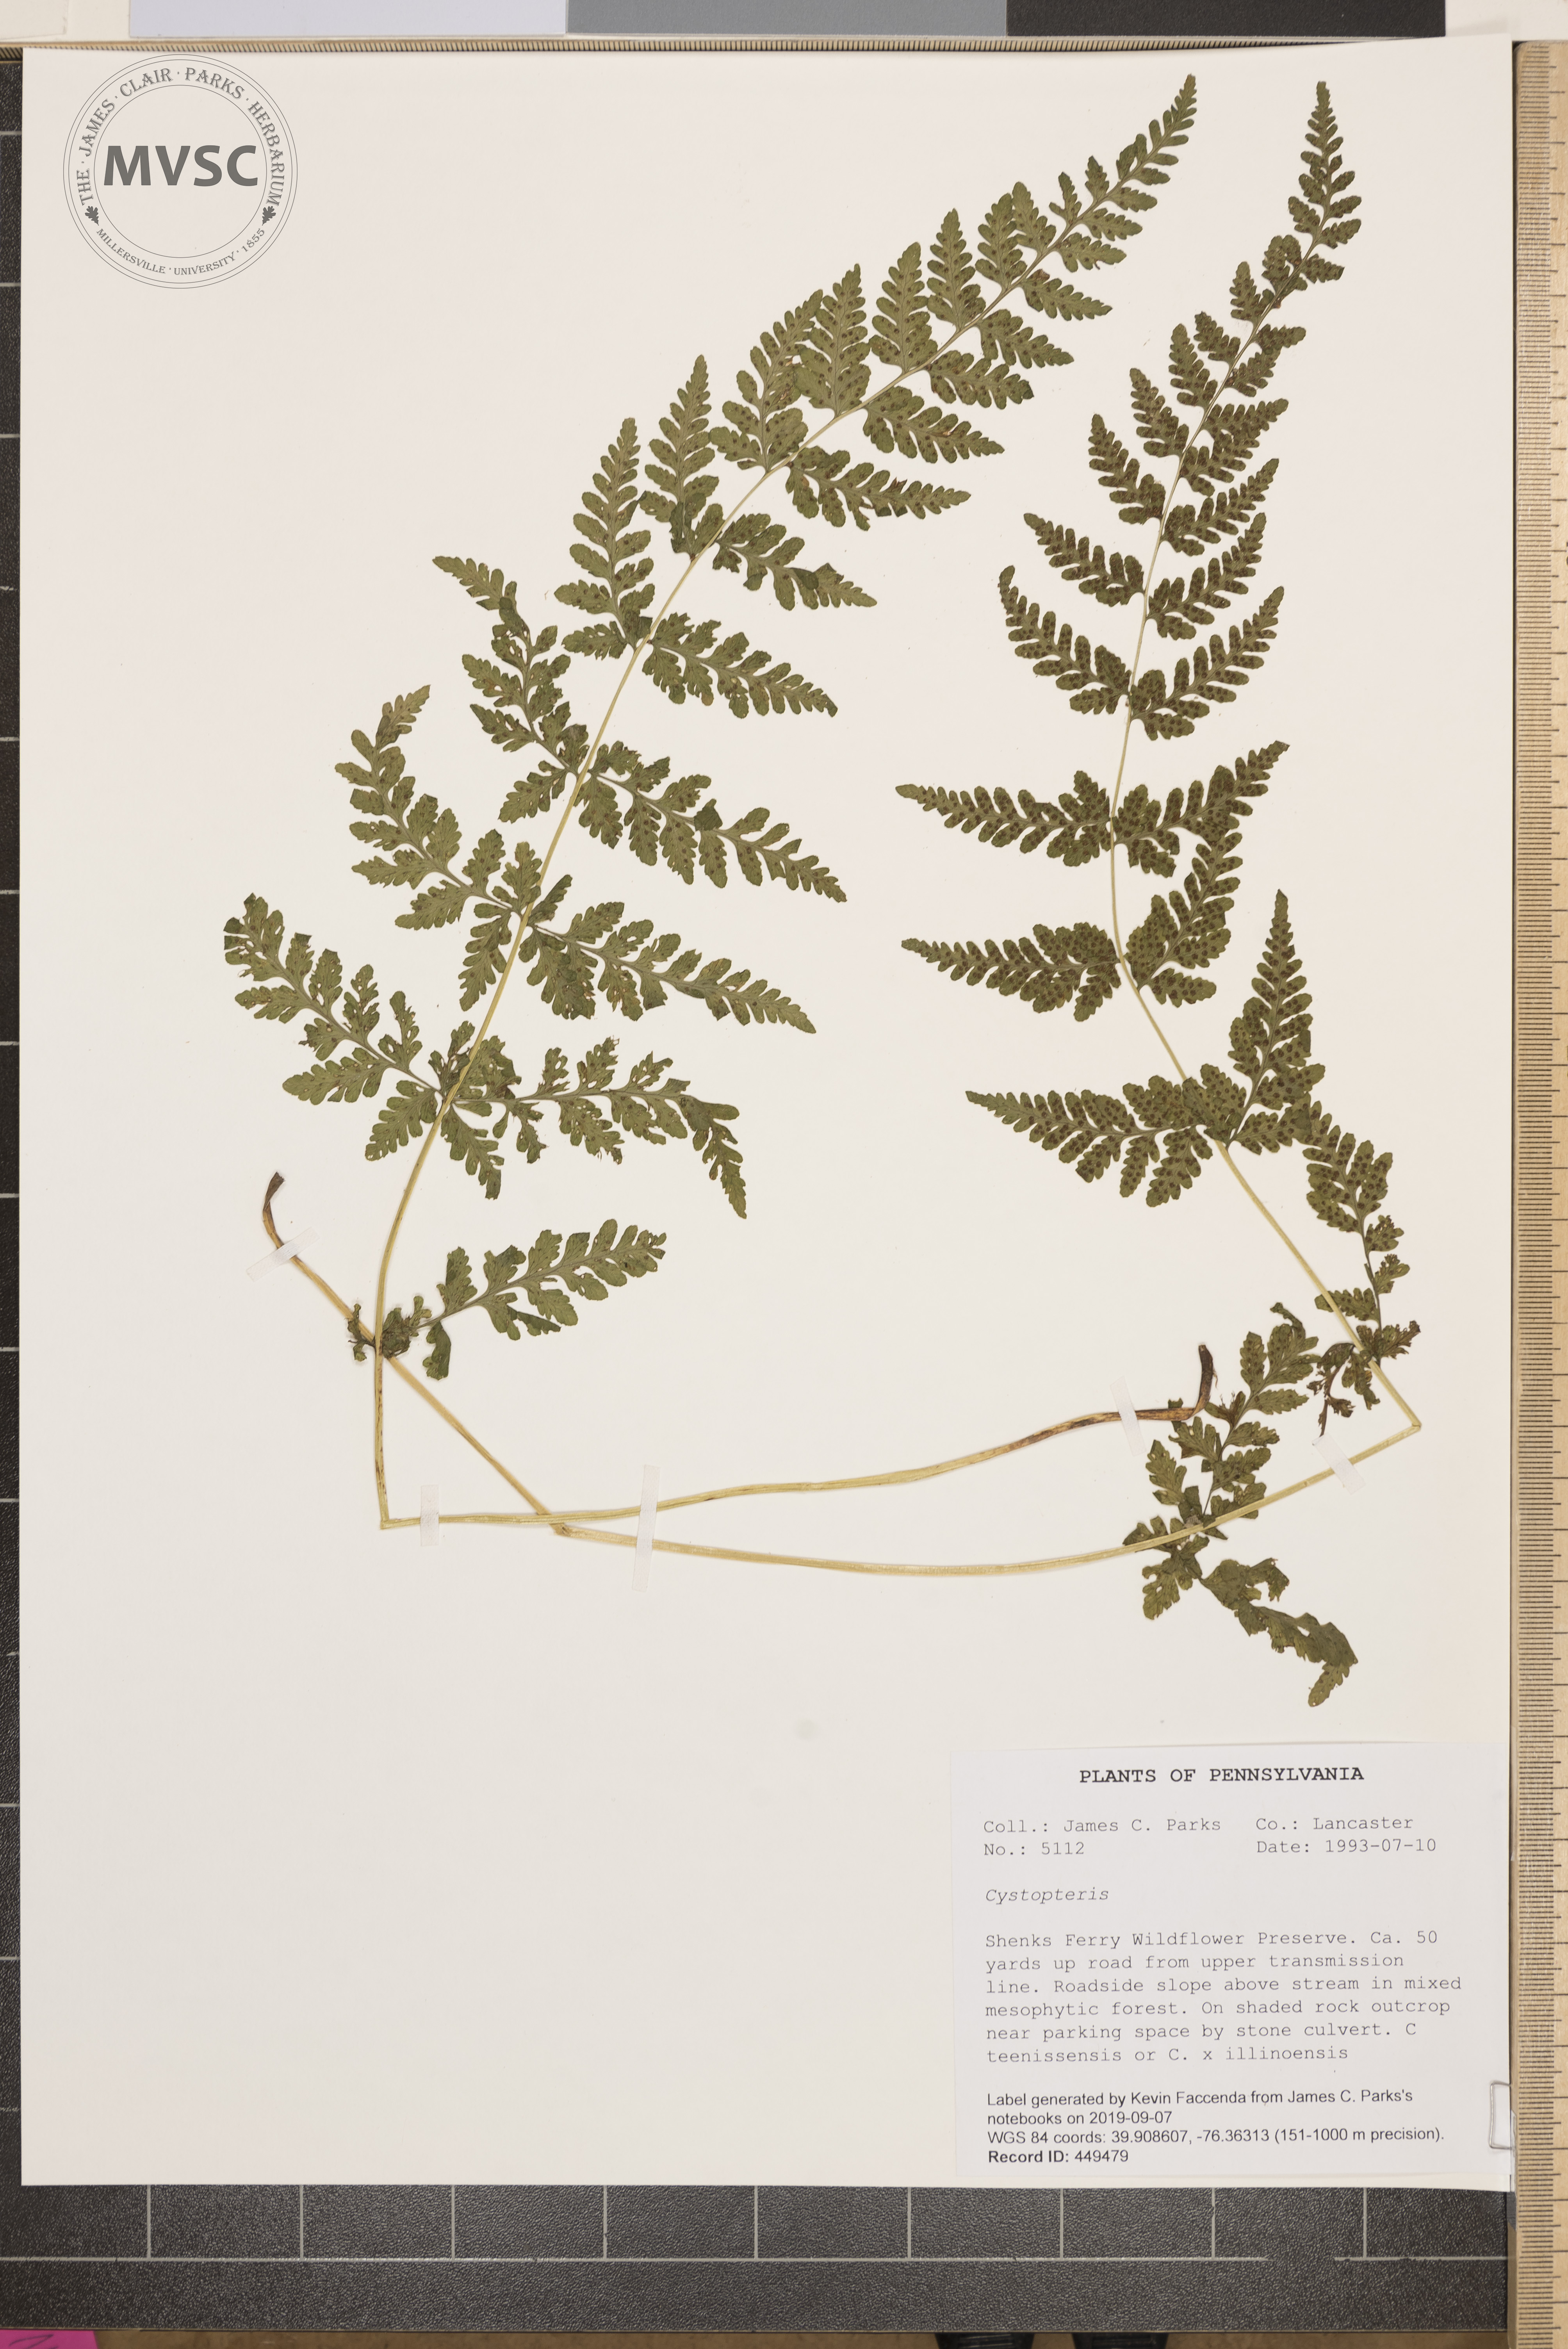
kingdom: Plantae
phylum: Tracheophyta
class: Polypodiopsida
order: Polypodiales
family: Cystopteridaceae
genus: Cystopteris
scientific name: Cystopteris
